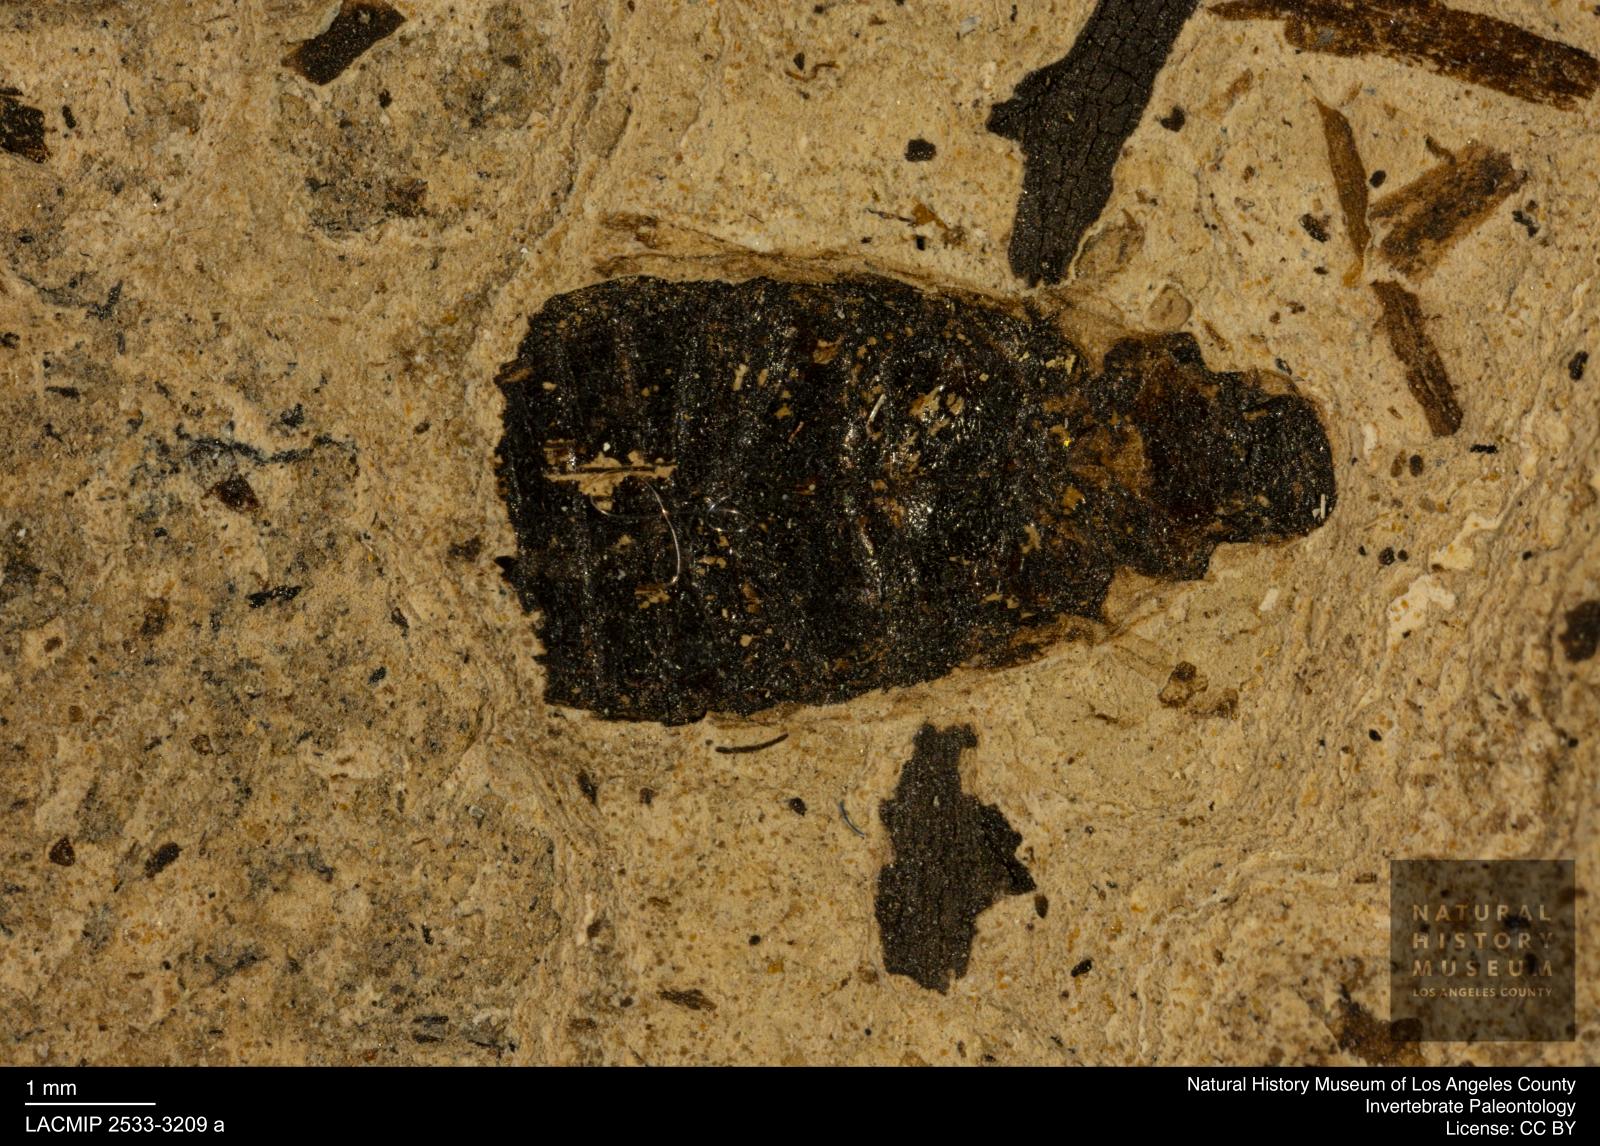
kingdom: Animalia
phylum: Arthropoda
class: Insecta
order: Coleoptera
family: Hydrophilidae
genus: Berosus
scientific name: Berosus morticinus
